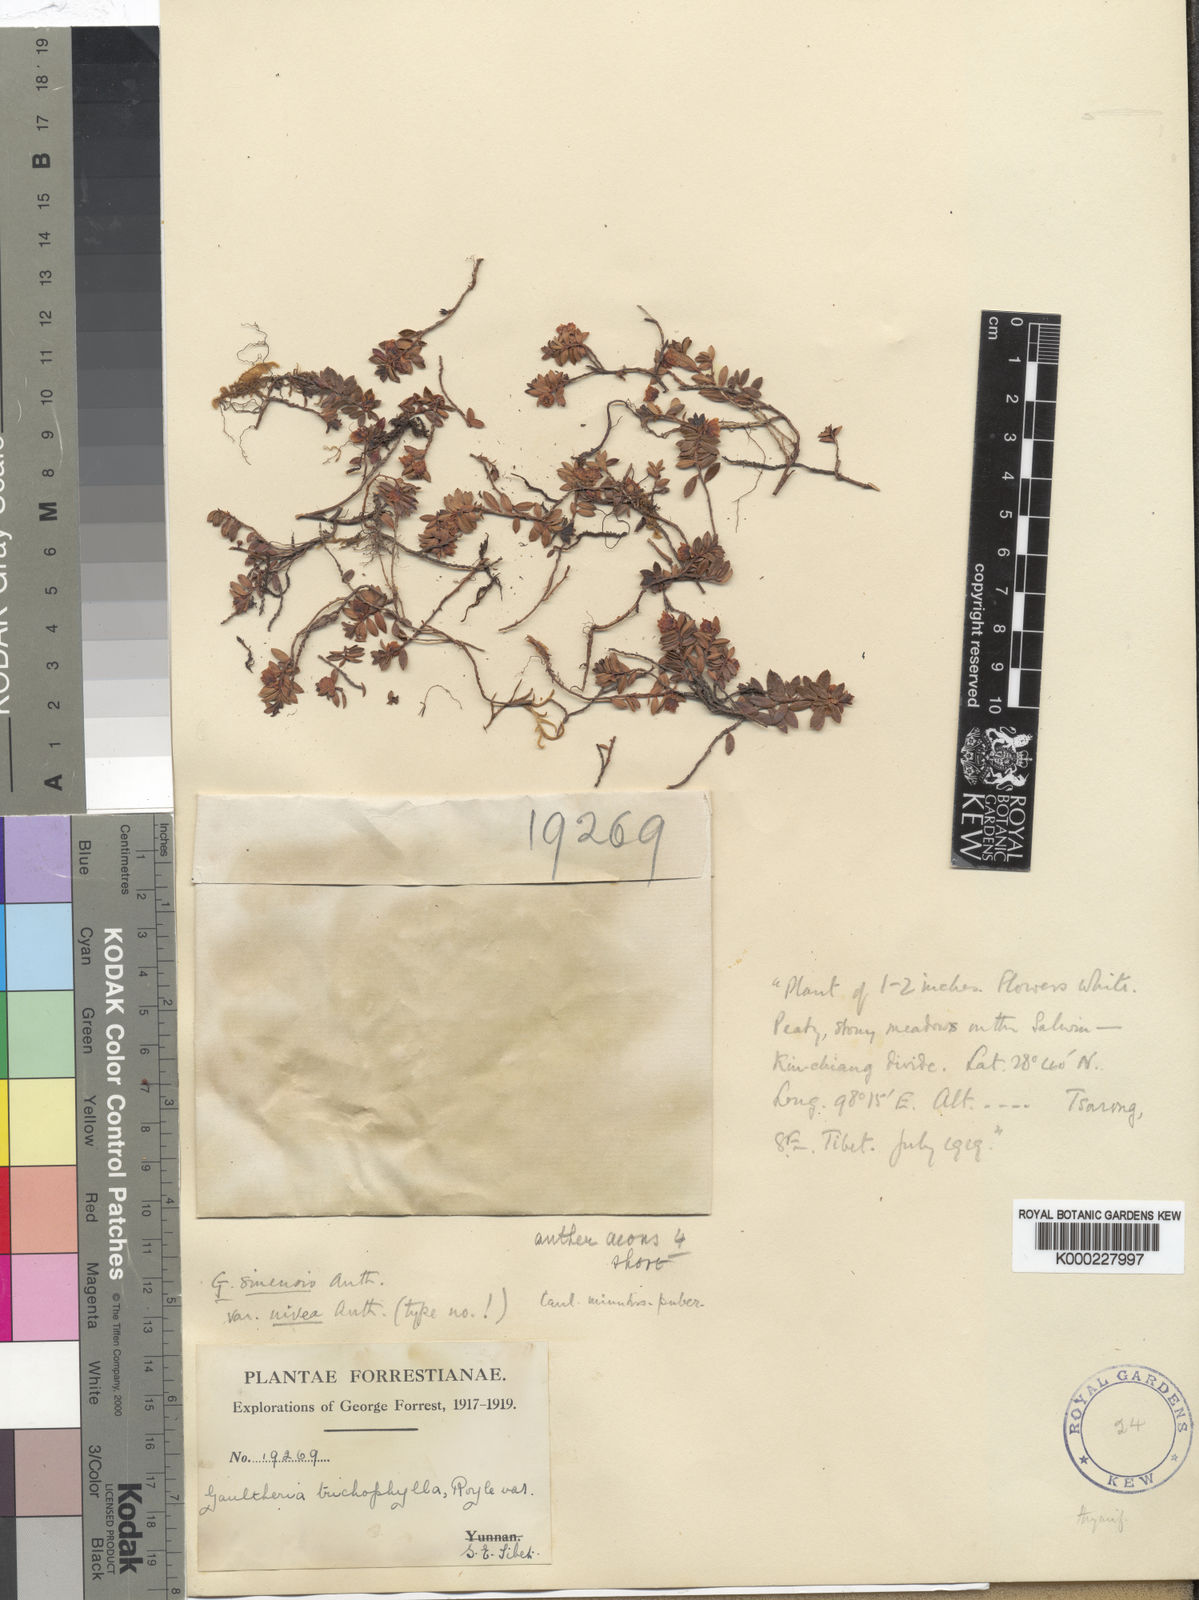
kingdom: Plantae
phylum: Tracheophyta
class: Magnoliopsida
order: Ericales
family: Ericaceae
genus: Gaultheria
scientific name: Gaultheria sinensis
